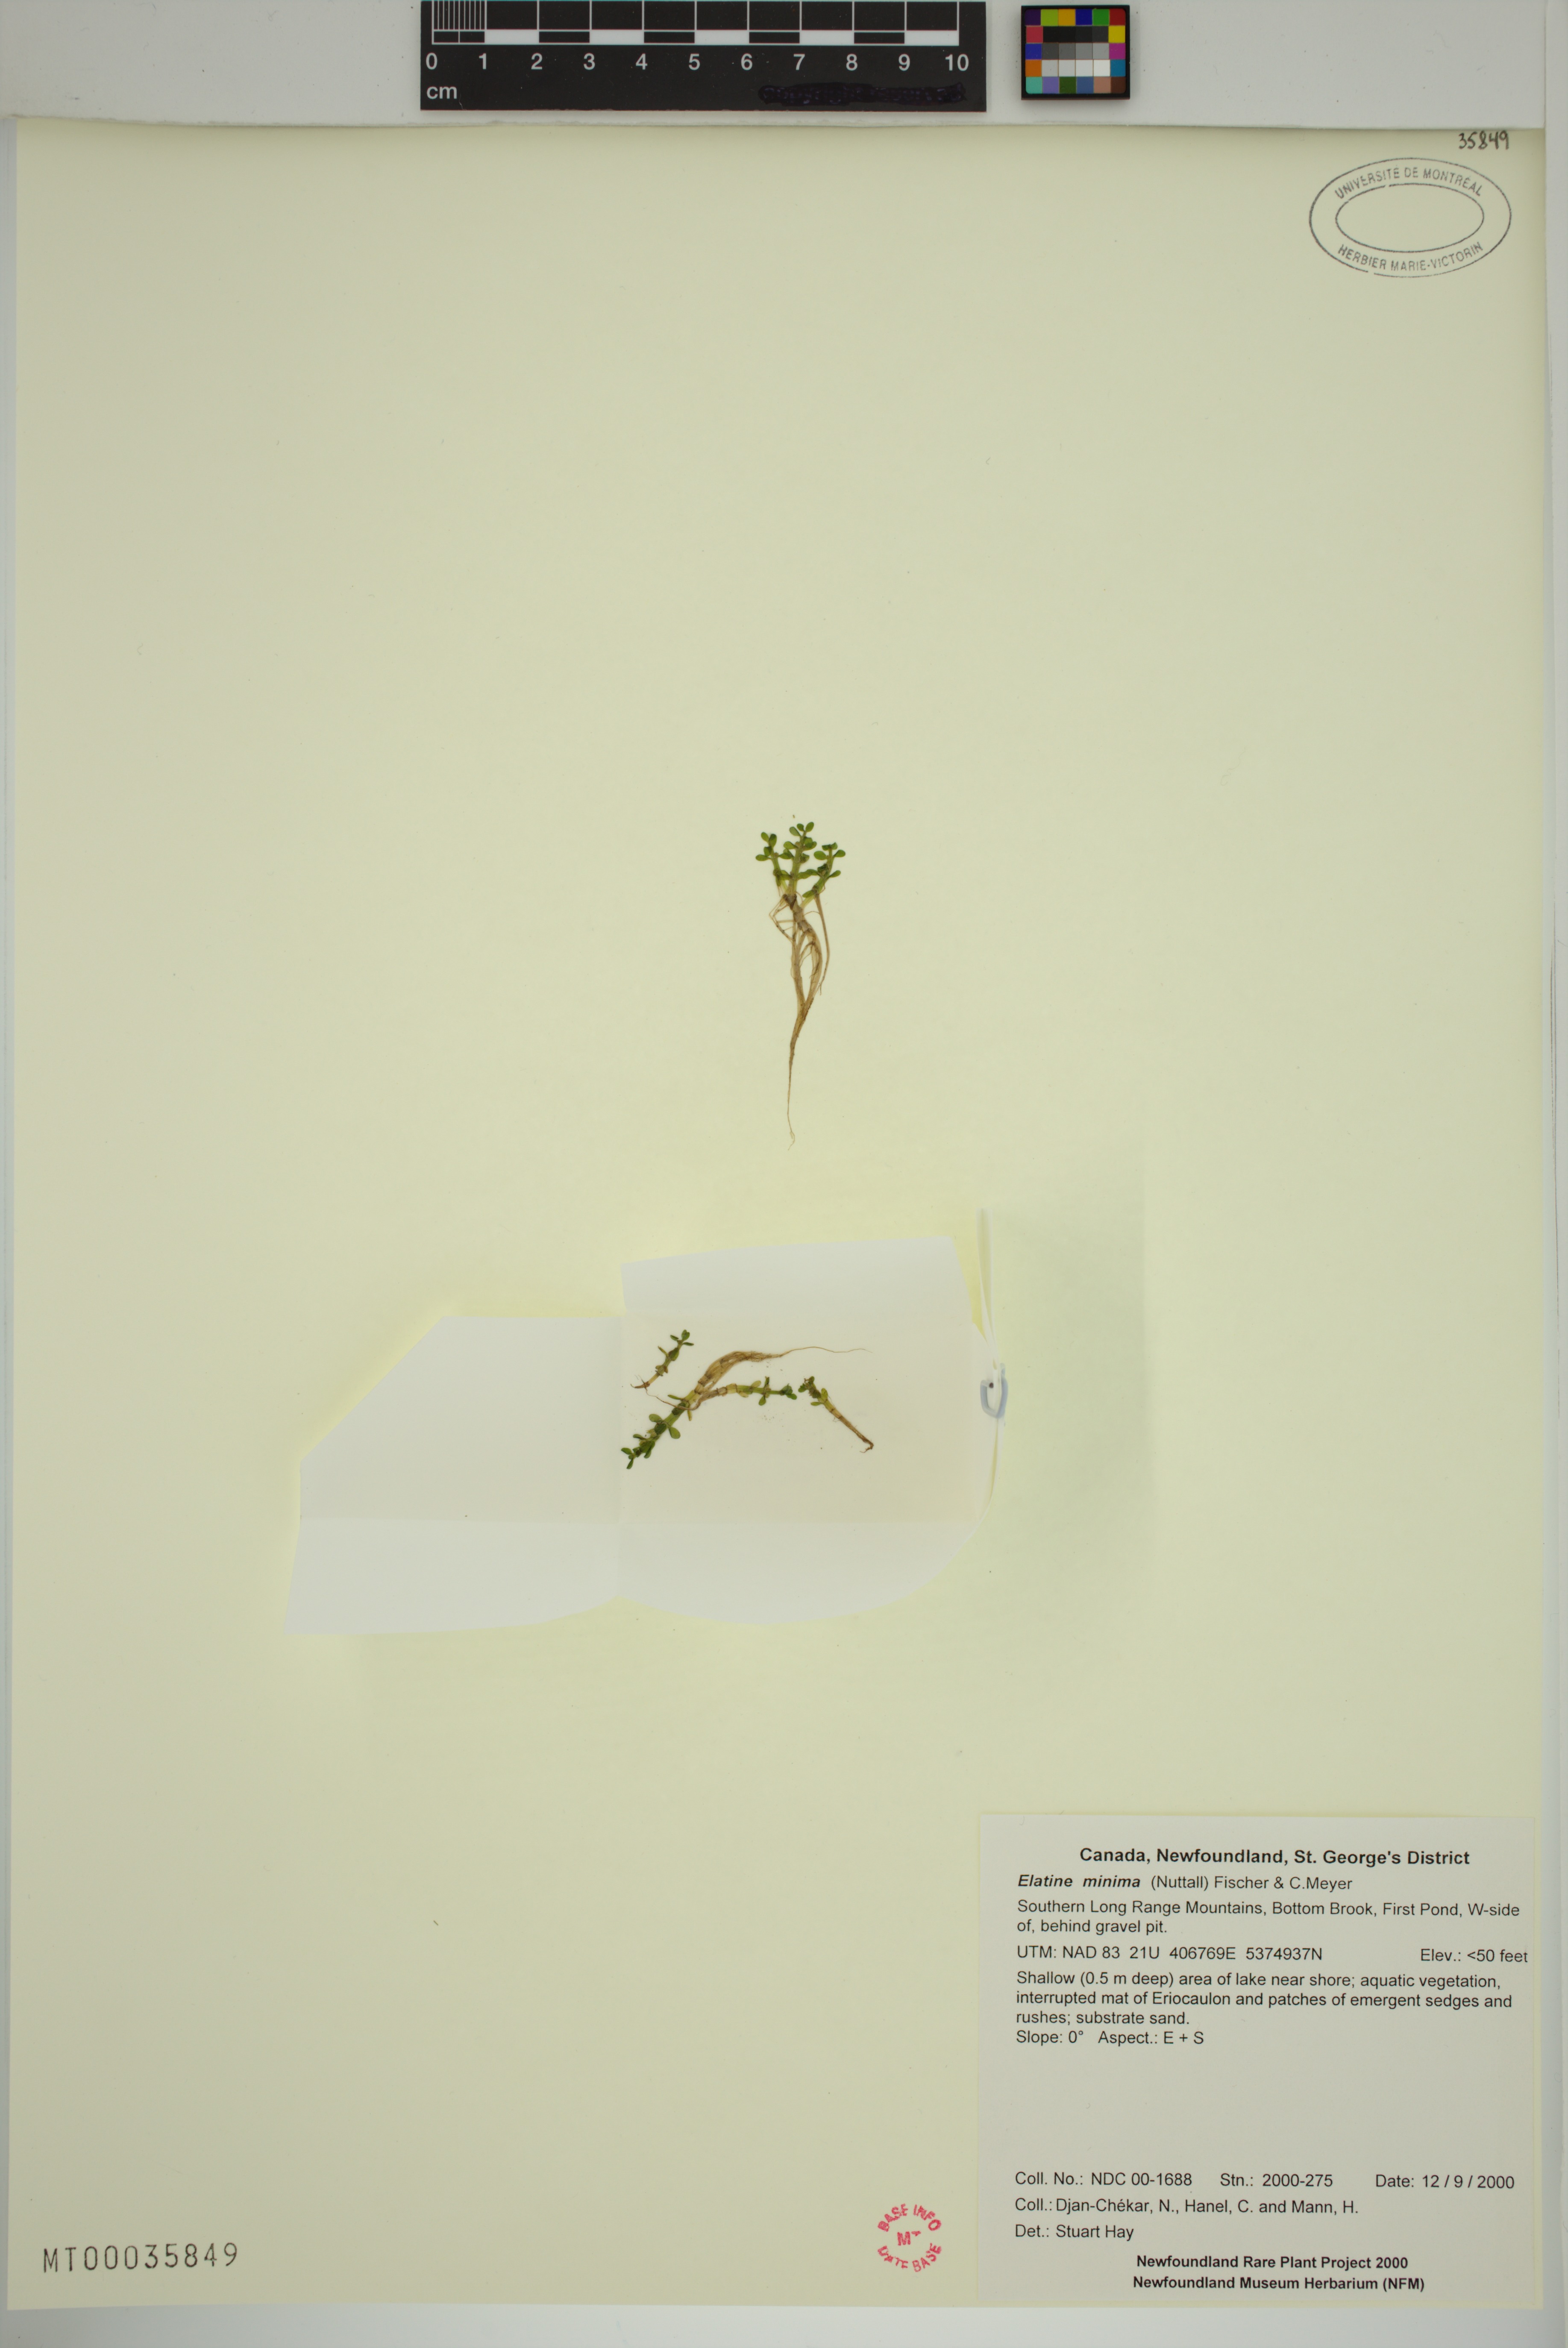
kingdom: Plantae
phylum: Tracheophyta
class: Magnoliopsida
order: Malpighiales
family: Elatinaceae
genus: Elatine
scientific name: Elatine minima
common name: Small waterwort
